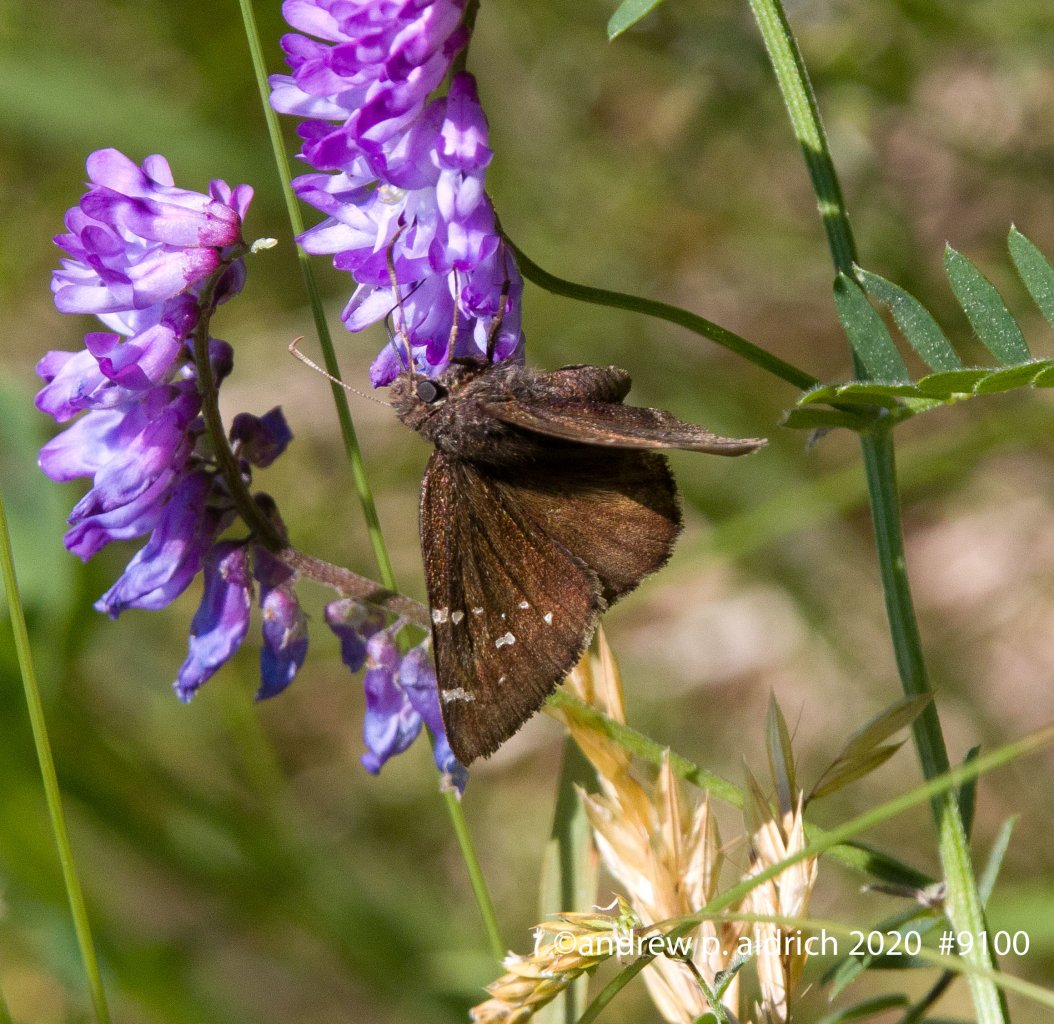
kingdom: Animalia
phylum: Arthropoda
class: Insecta
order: Lepidoptera
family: Hesperiidae
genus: Autochton
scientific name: Autochton
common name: Northern Cloudywing
